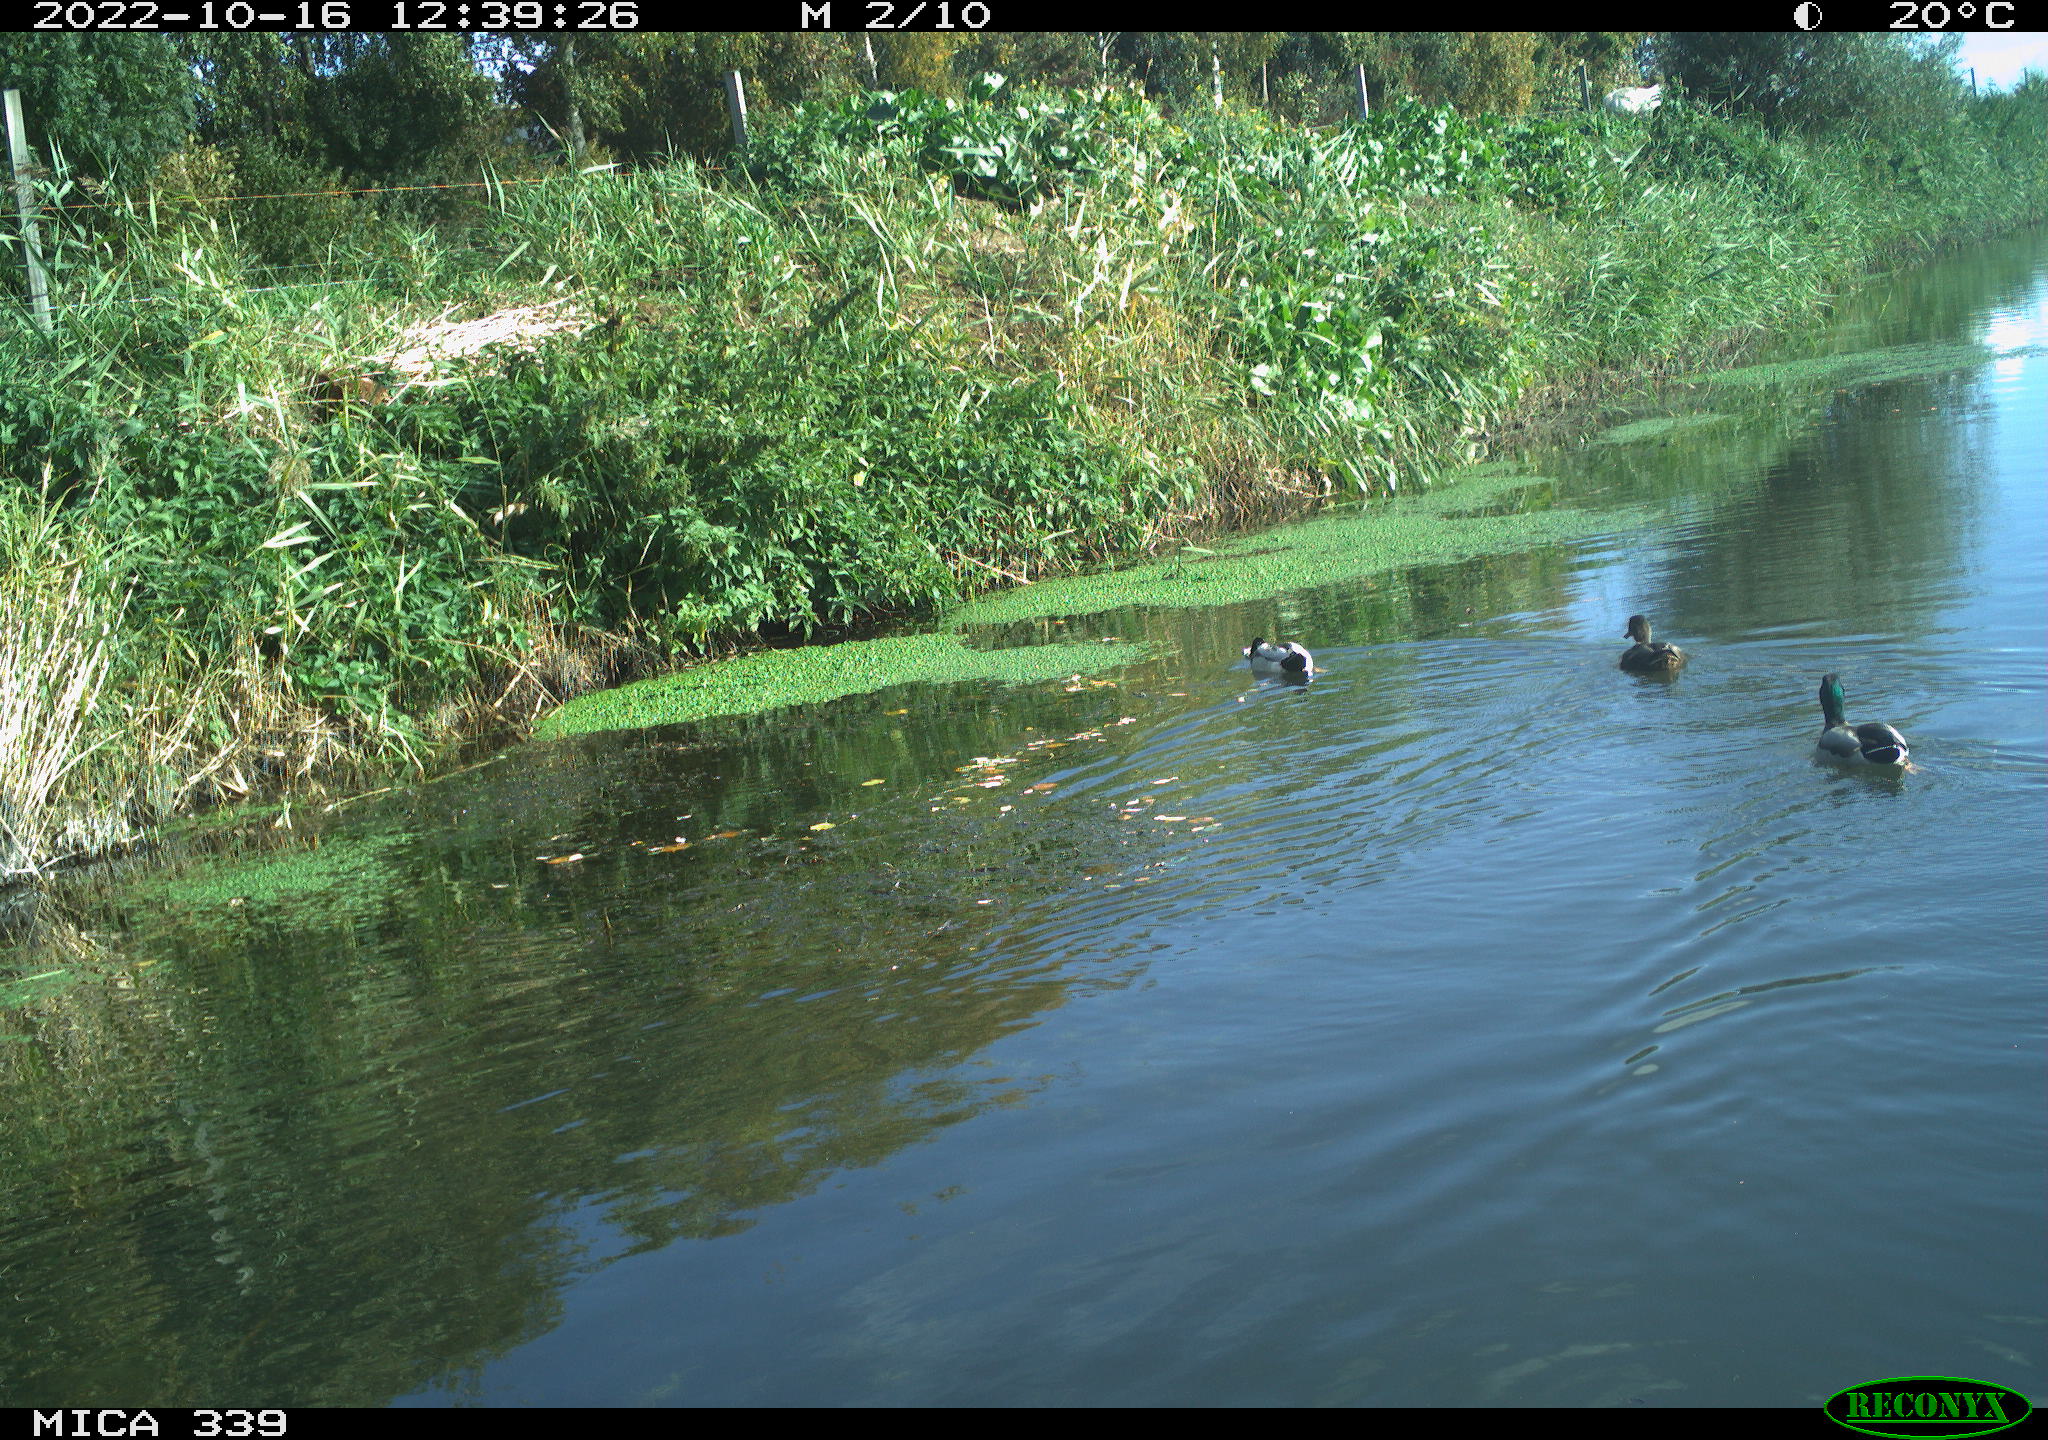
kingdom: Animalia
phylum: Chordata
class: Aves
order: Anseriformes
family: Anatidae
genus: Anas
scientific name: Anas platyrhynchos
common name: Mallard
